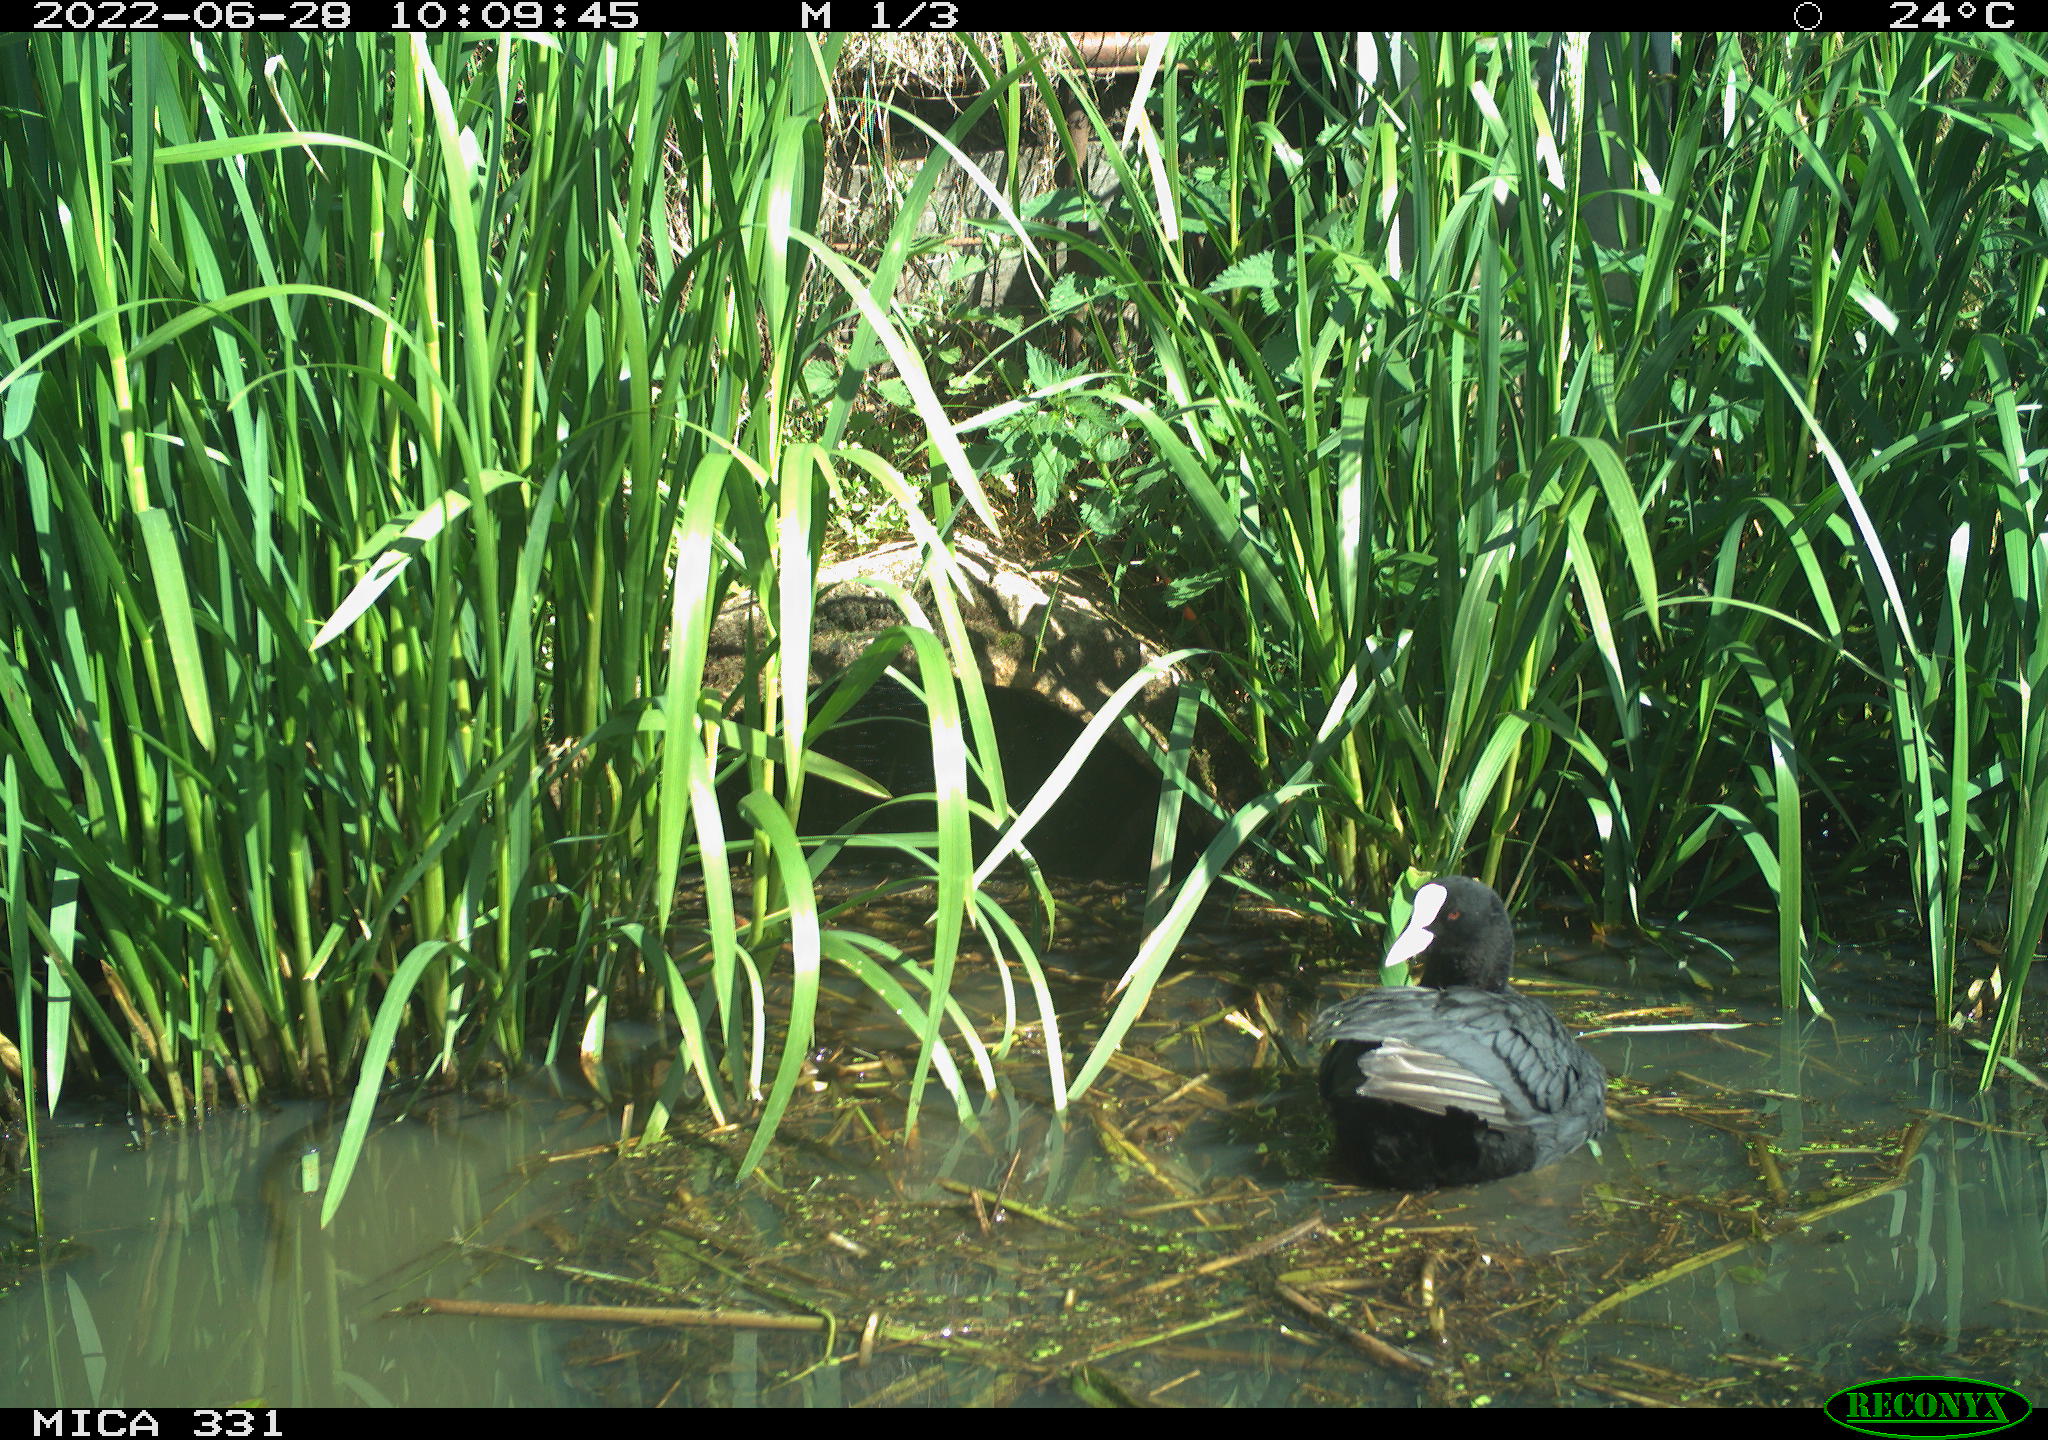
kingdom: Animalia
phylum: Chordata
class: Aves
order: Gruiformes
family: Rallidae
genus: Fulica
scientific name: Fulica atra
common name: Eurasian coot
